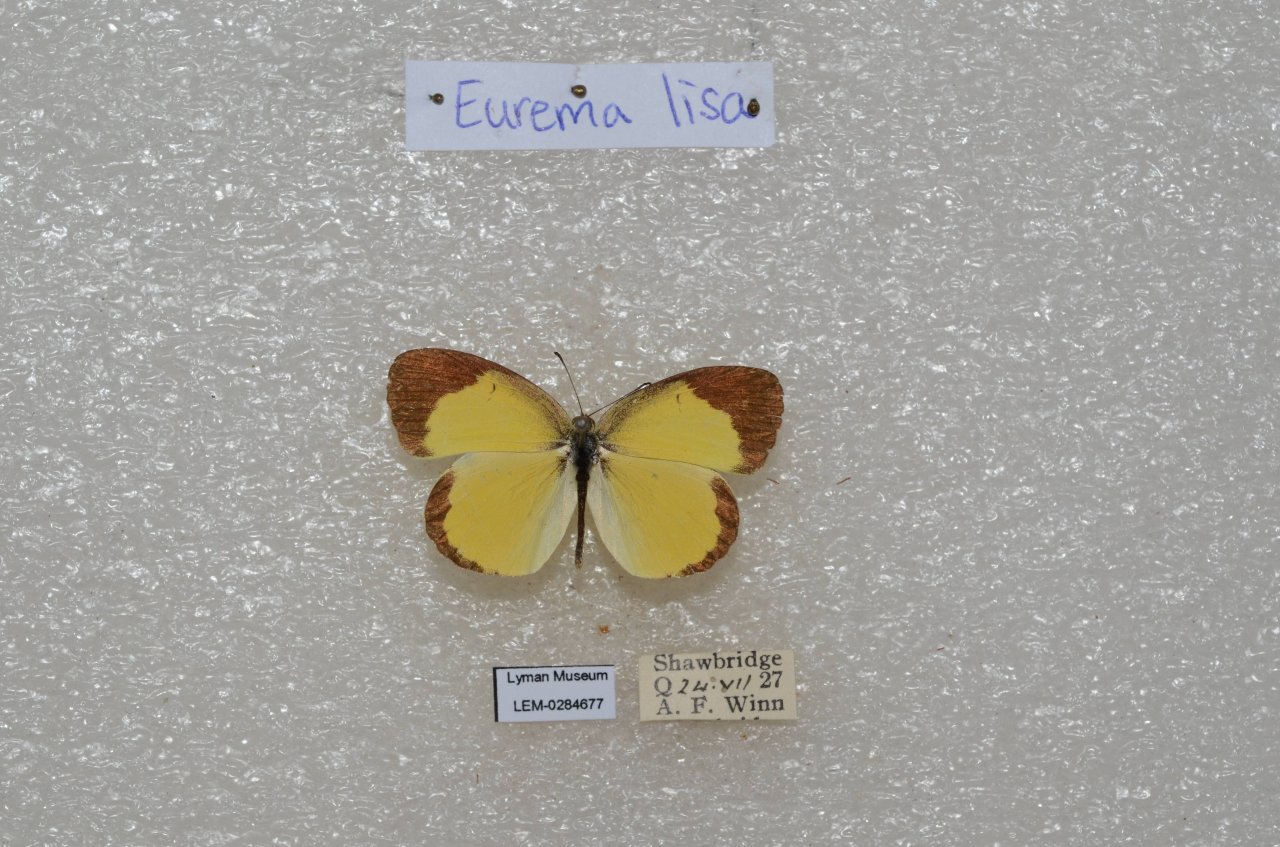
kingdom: Animalia
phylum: Arthropoda
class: Insecta
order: Lepidoptera
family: Pieridae
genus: Pyrisitia
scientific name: Pyrisitia lisa
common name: Little Yellow
